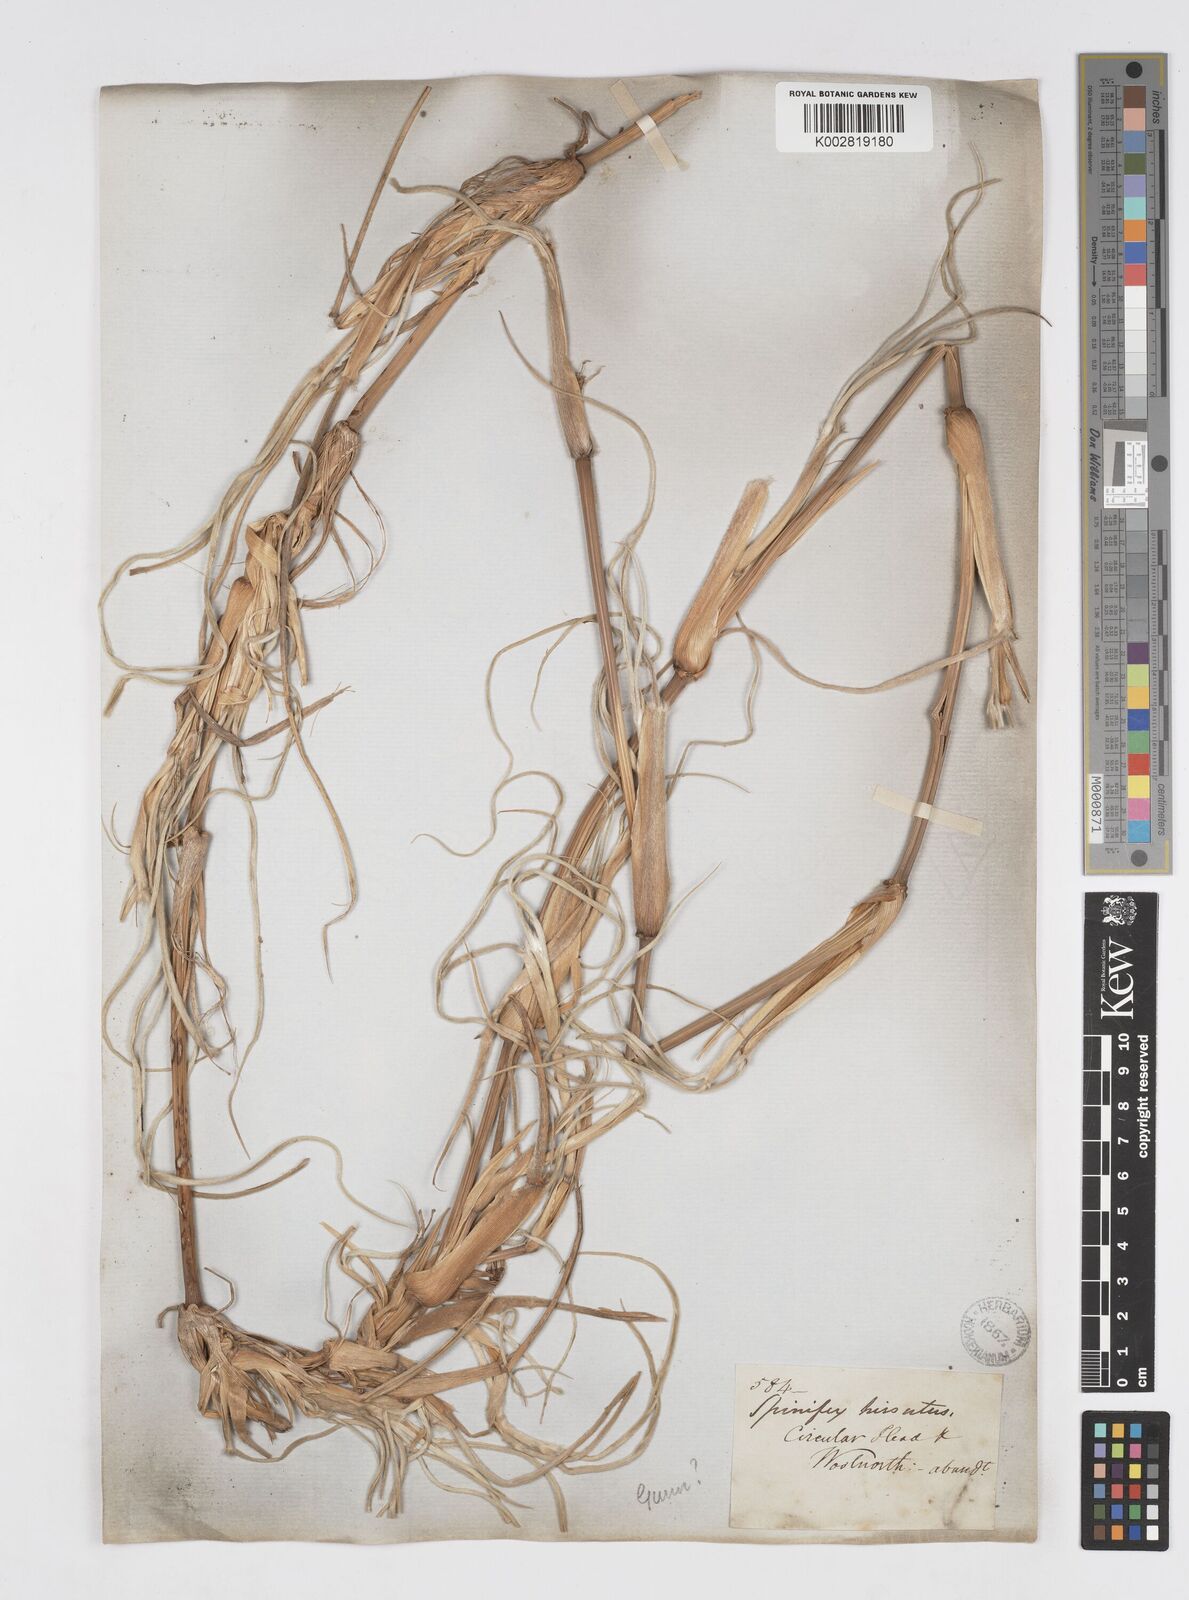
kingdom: Plantae
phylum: Tracheophyta
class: Liliopsida
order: Poales
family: Poaceae
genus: Spinifex
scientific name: Spinifex sericeus
